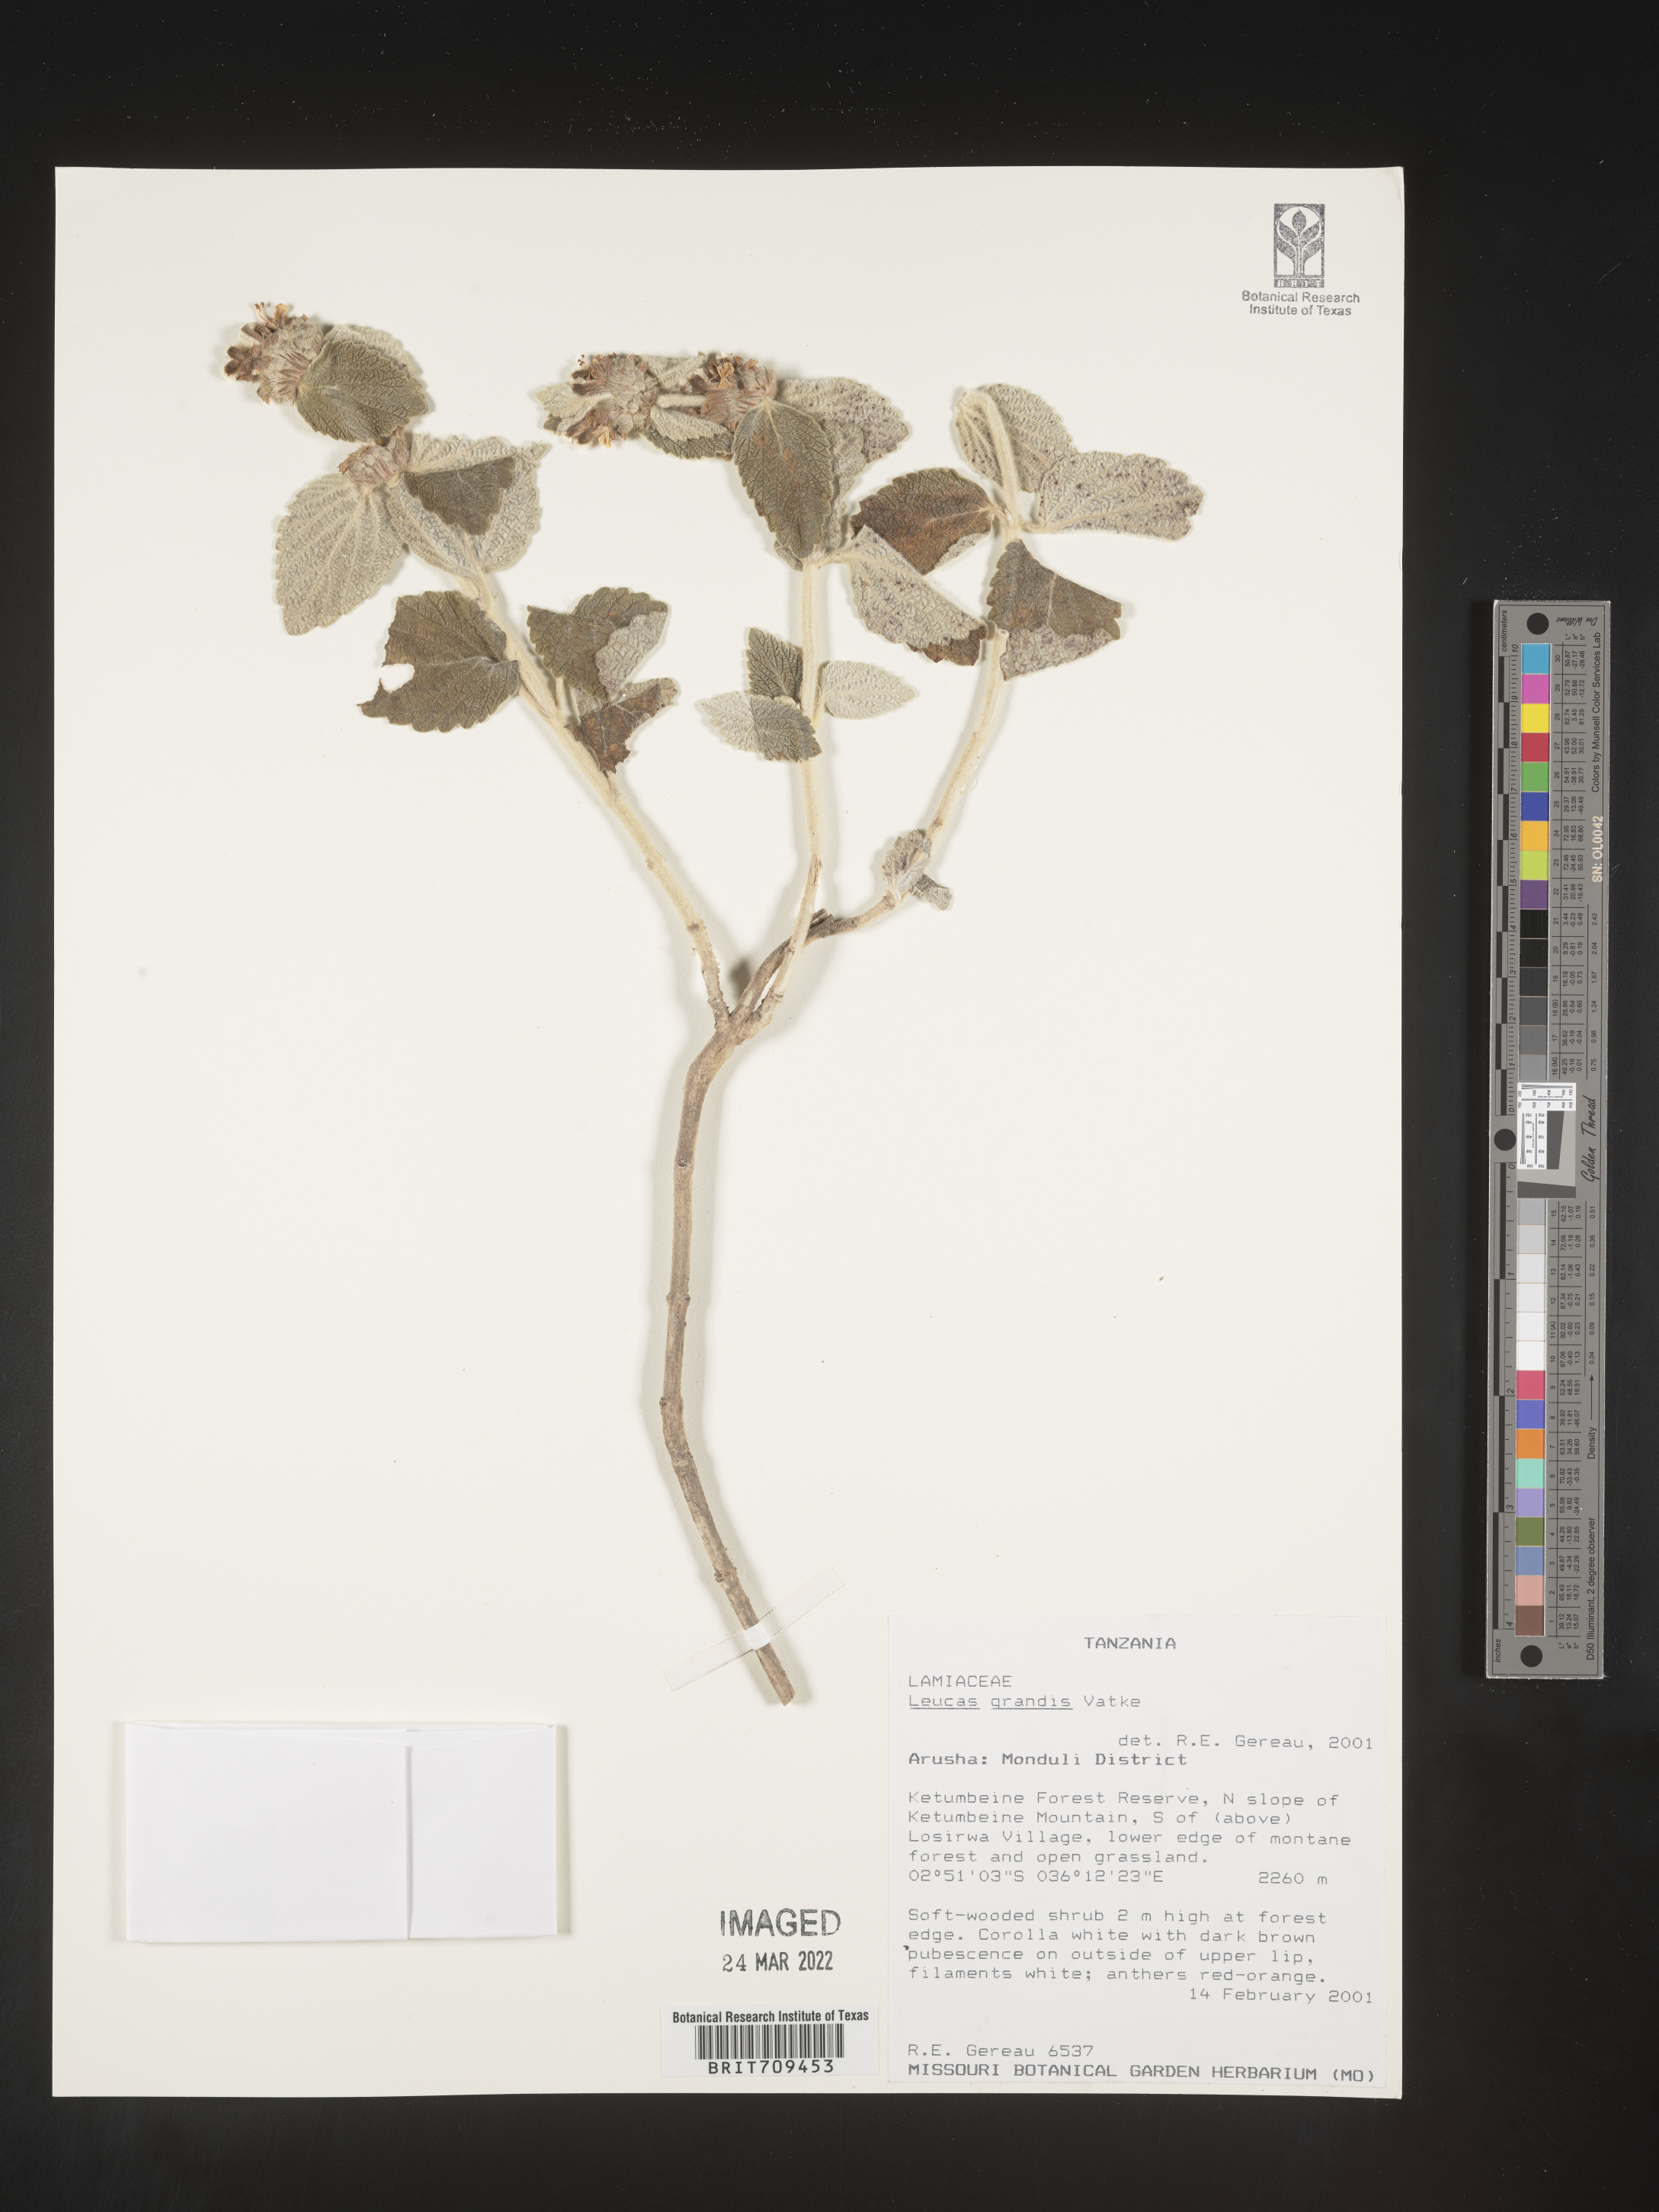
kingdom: Plantae
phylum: Tracheophyta
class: Magnoliopsida
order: Lamiales
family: Lamiaceae
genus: Leucas
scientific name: Leucas
